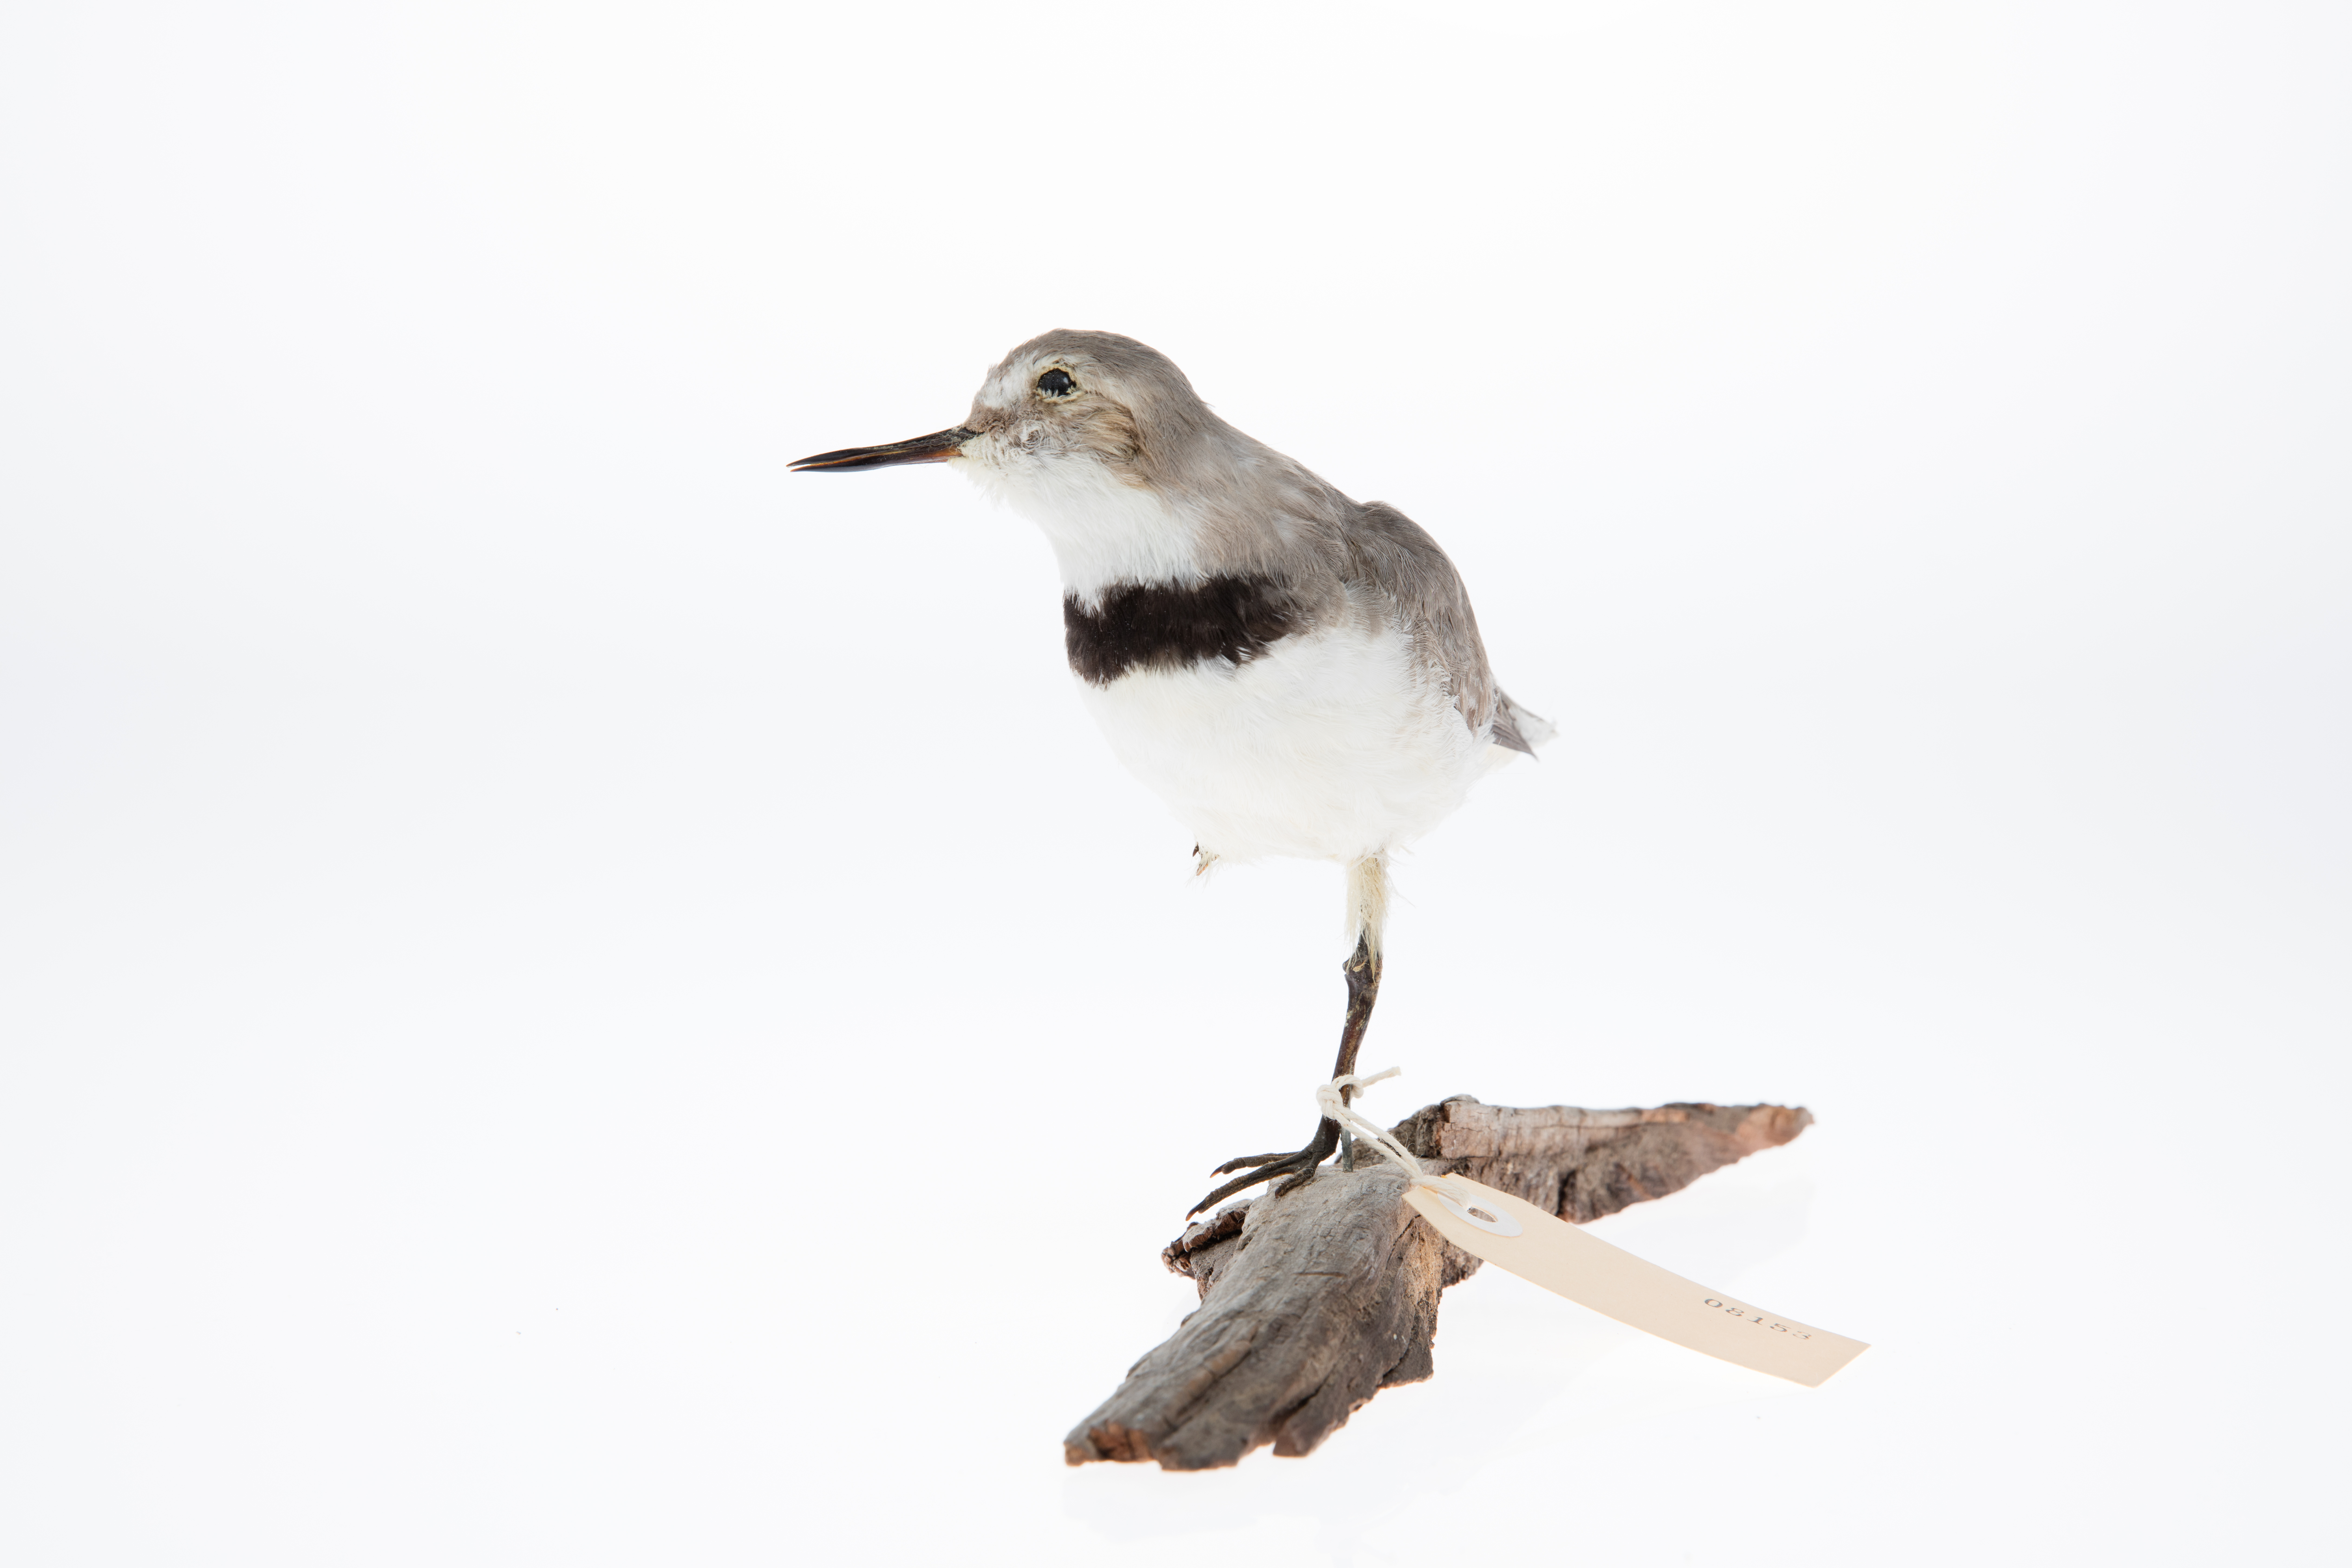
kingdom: Animalia
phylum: Chordata
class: Aves
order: Charadriiformes
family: Charadriidae
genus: Charadrius
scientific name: Charadrius frontalis
